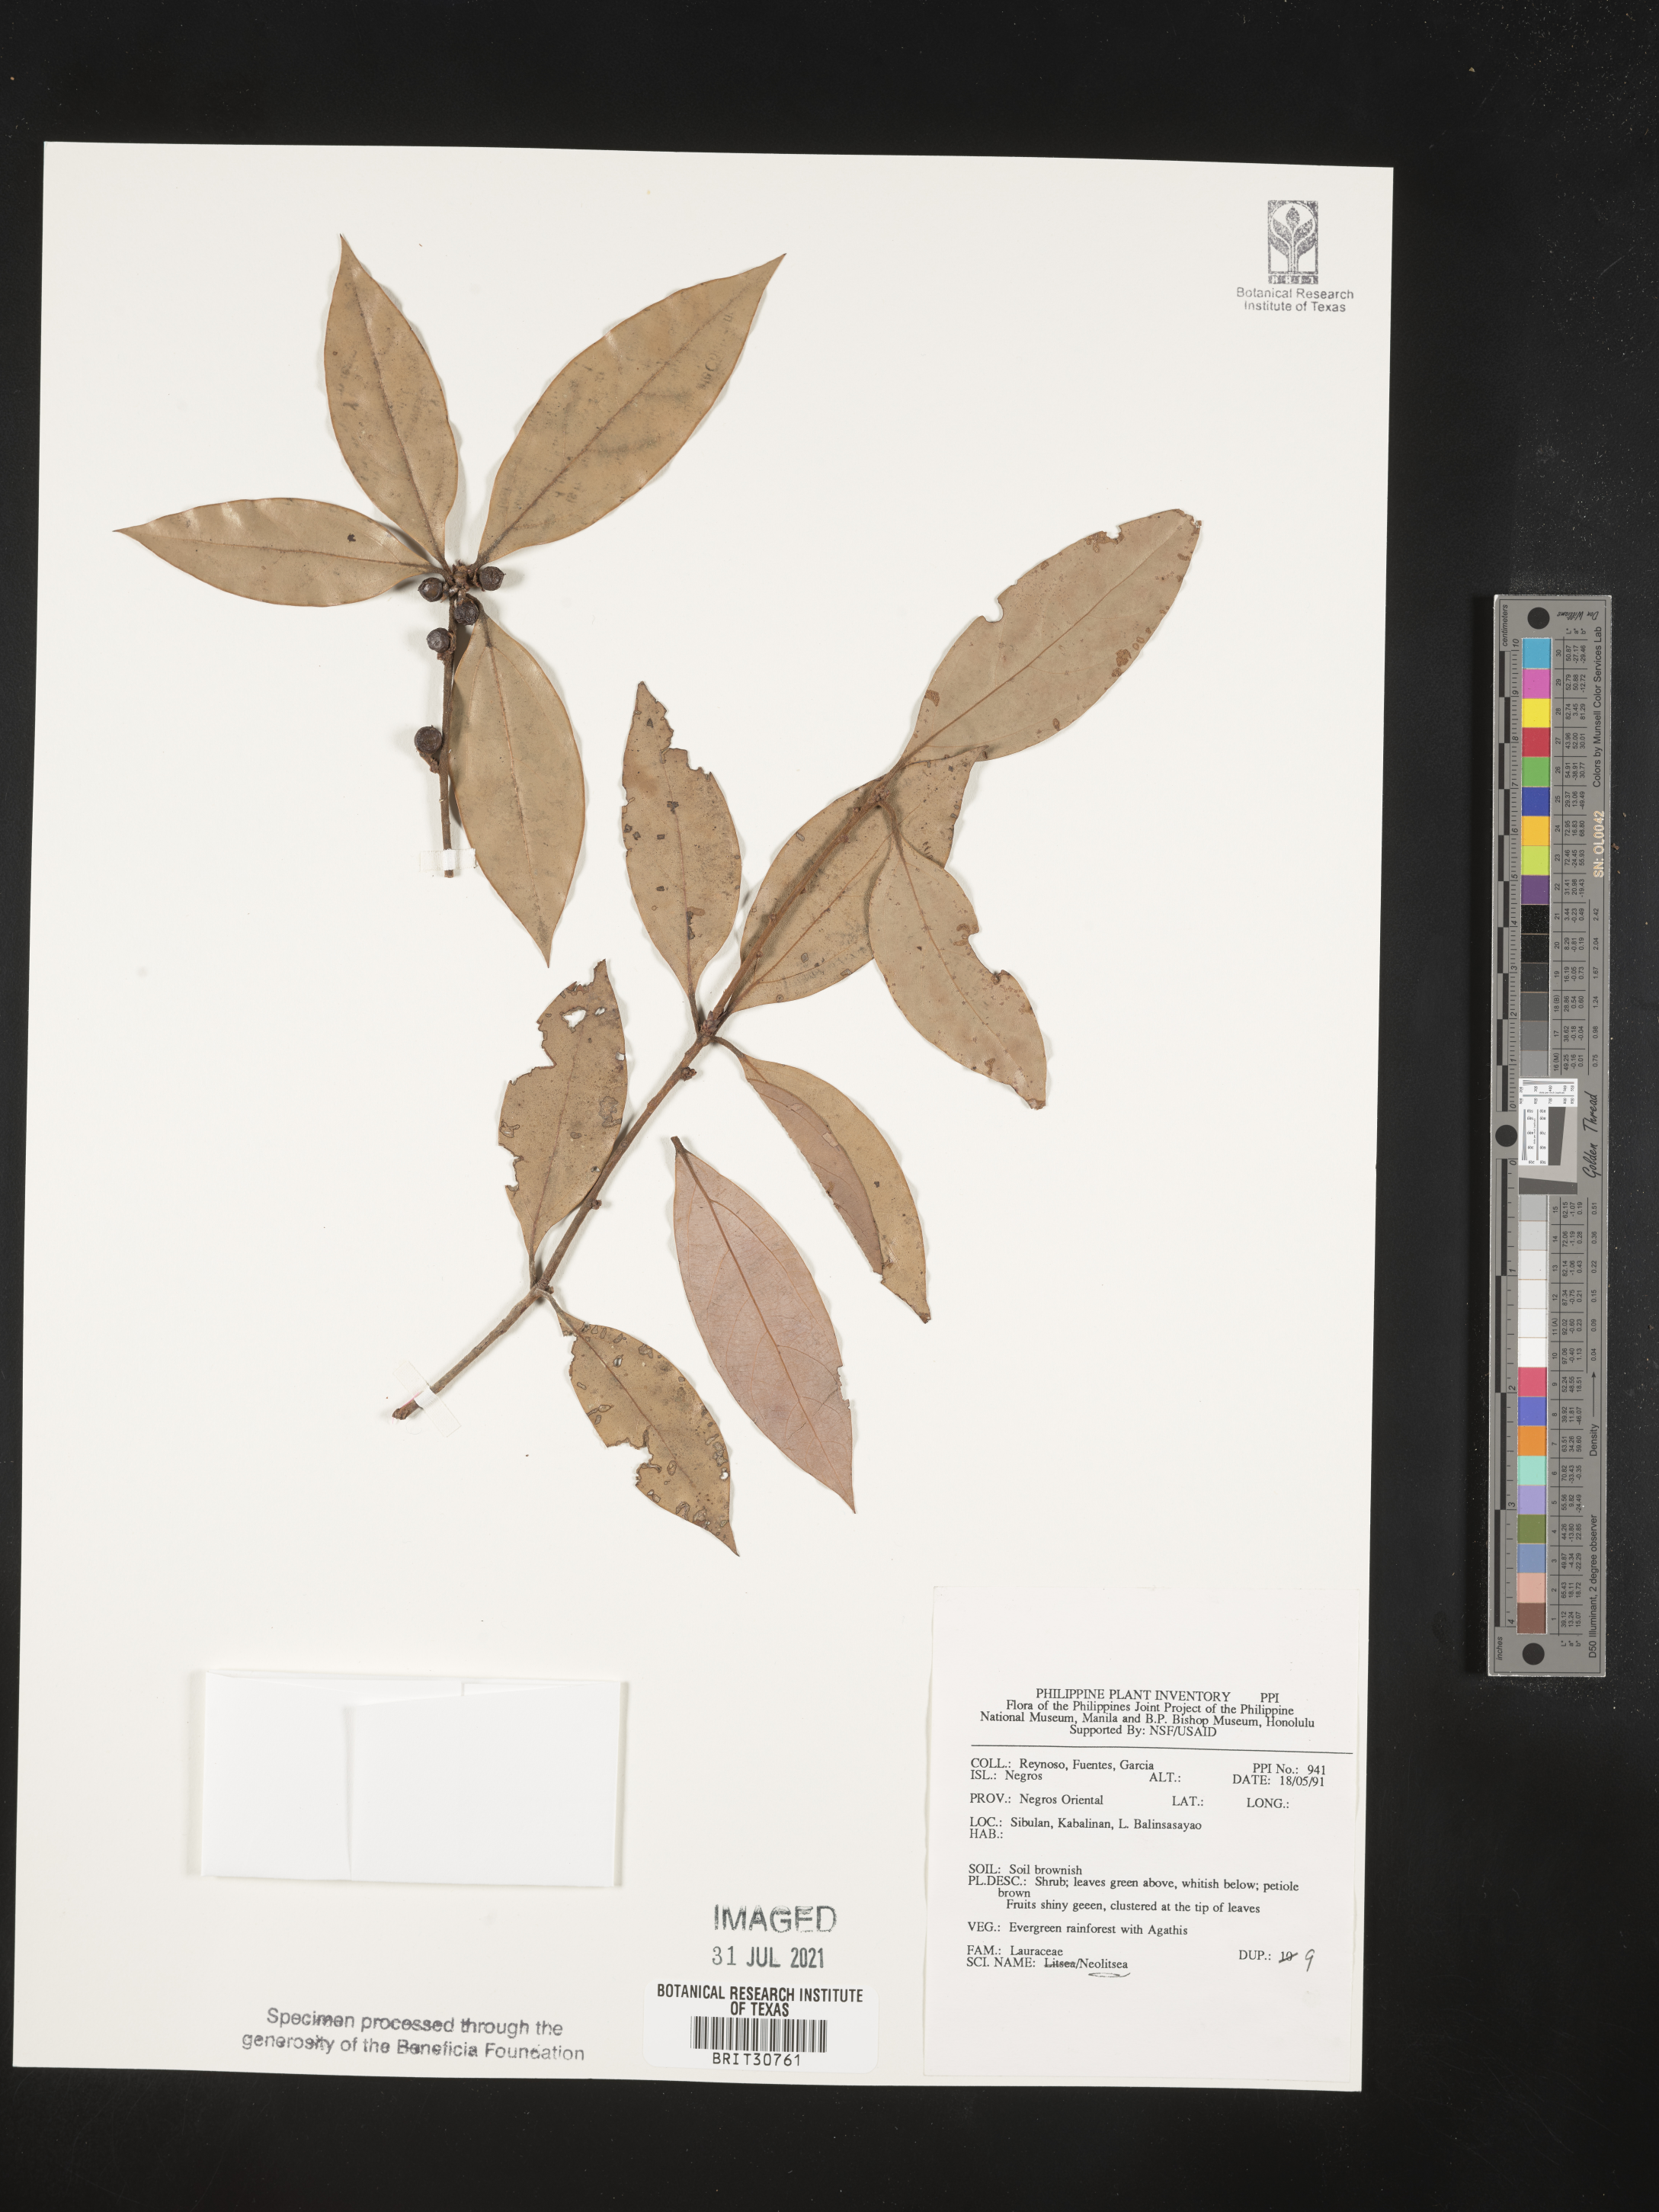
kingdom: Plantae
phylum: Tracheophyta
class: Magnoliopsida
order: Laurales
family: Lauraceae
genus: Neolitsea
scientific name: Neolitsea
